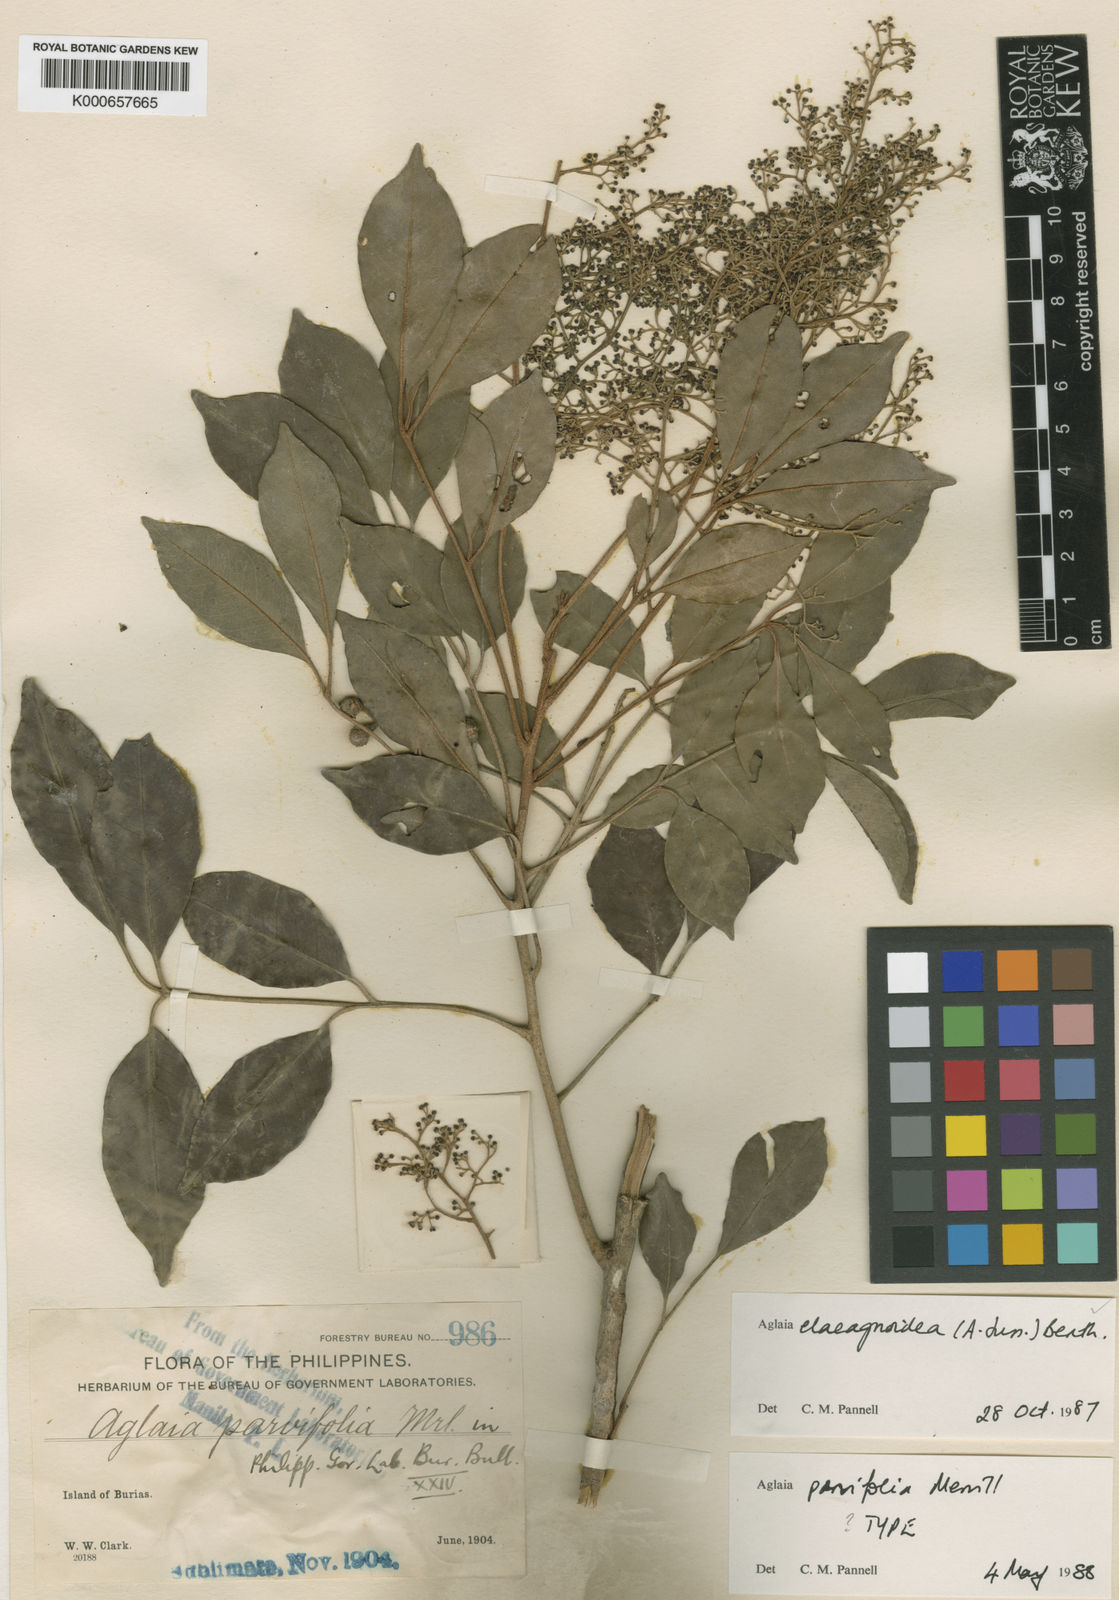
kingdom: Plantae
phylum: Tracheophyta
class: Magnoliopsida
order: Sapindales
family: Meliaceae
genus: Aglaia
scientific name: Aglaia elaeagnoidea
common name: Droopyleaf
